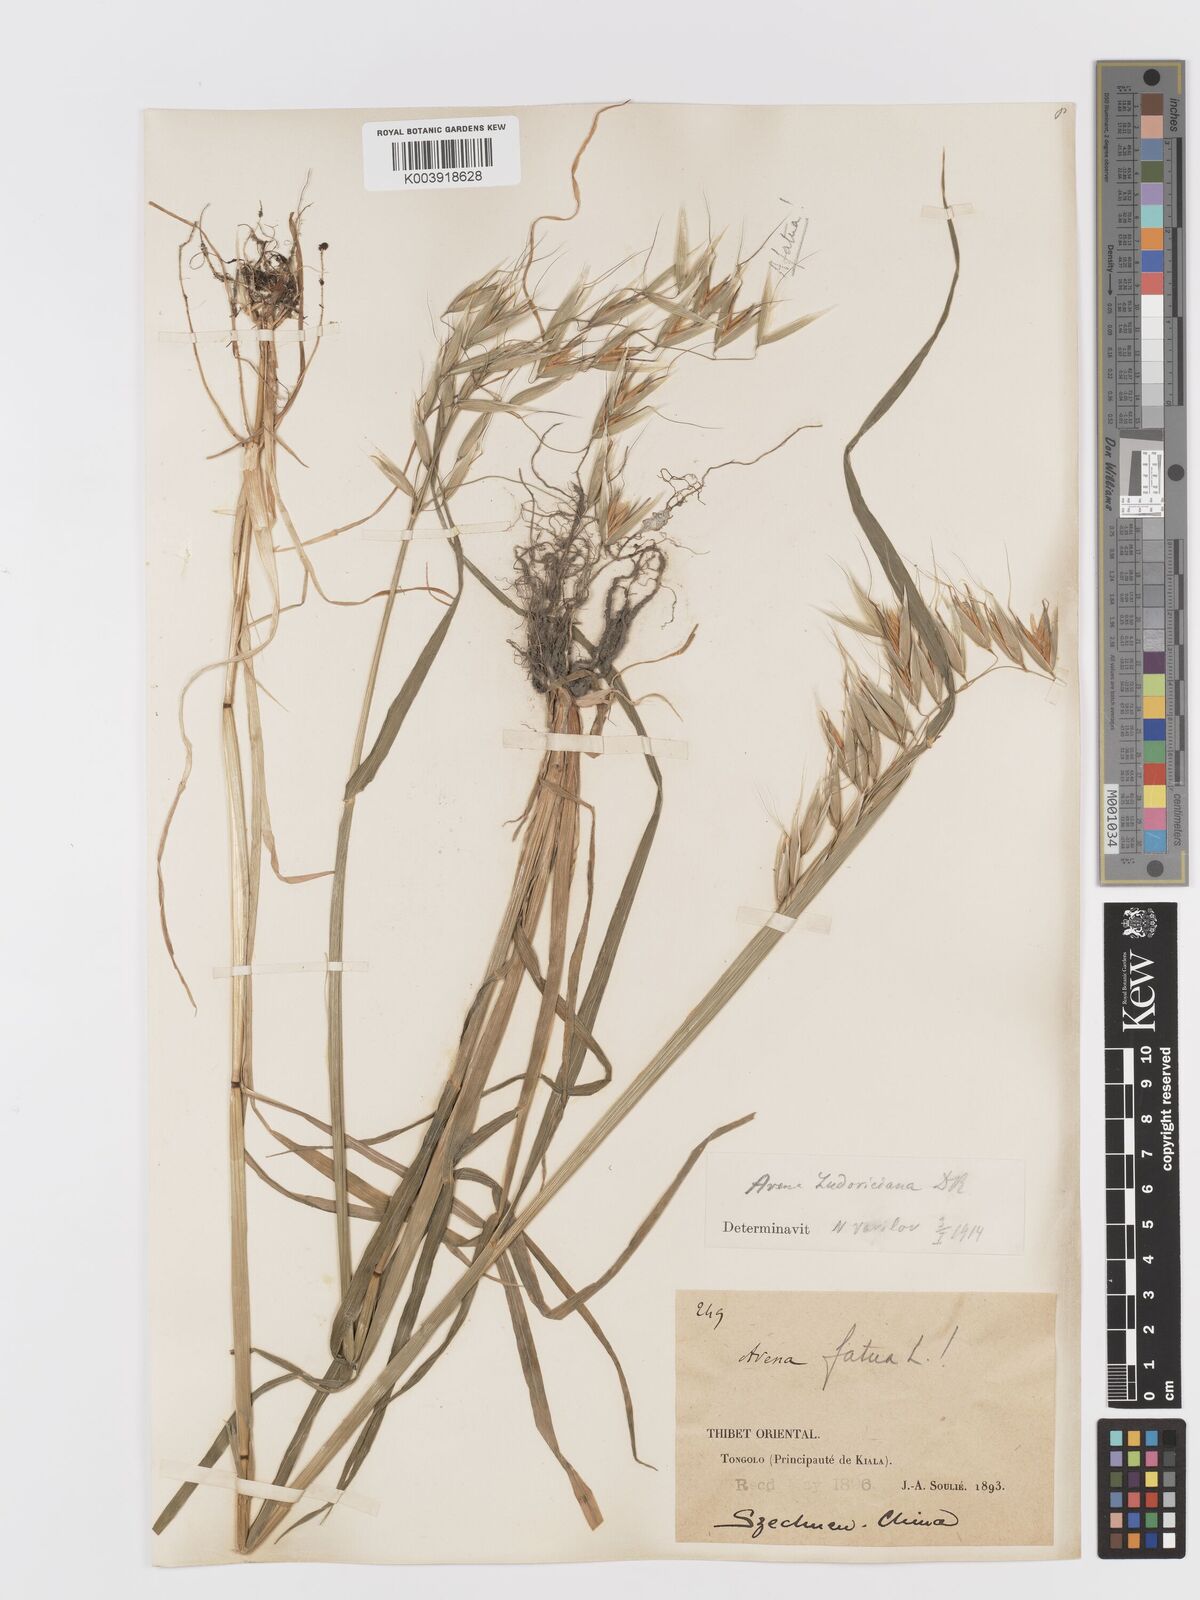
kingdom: Plantae
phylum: Tracheophyta
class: Liliopsida
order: Poales
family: Poaceae
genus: Avena
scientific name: Avena fatua
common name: Wild oat
